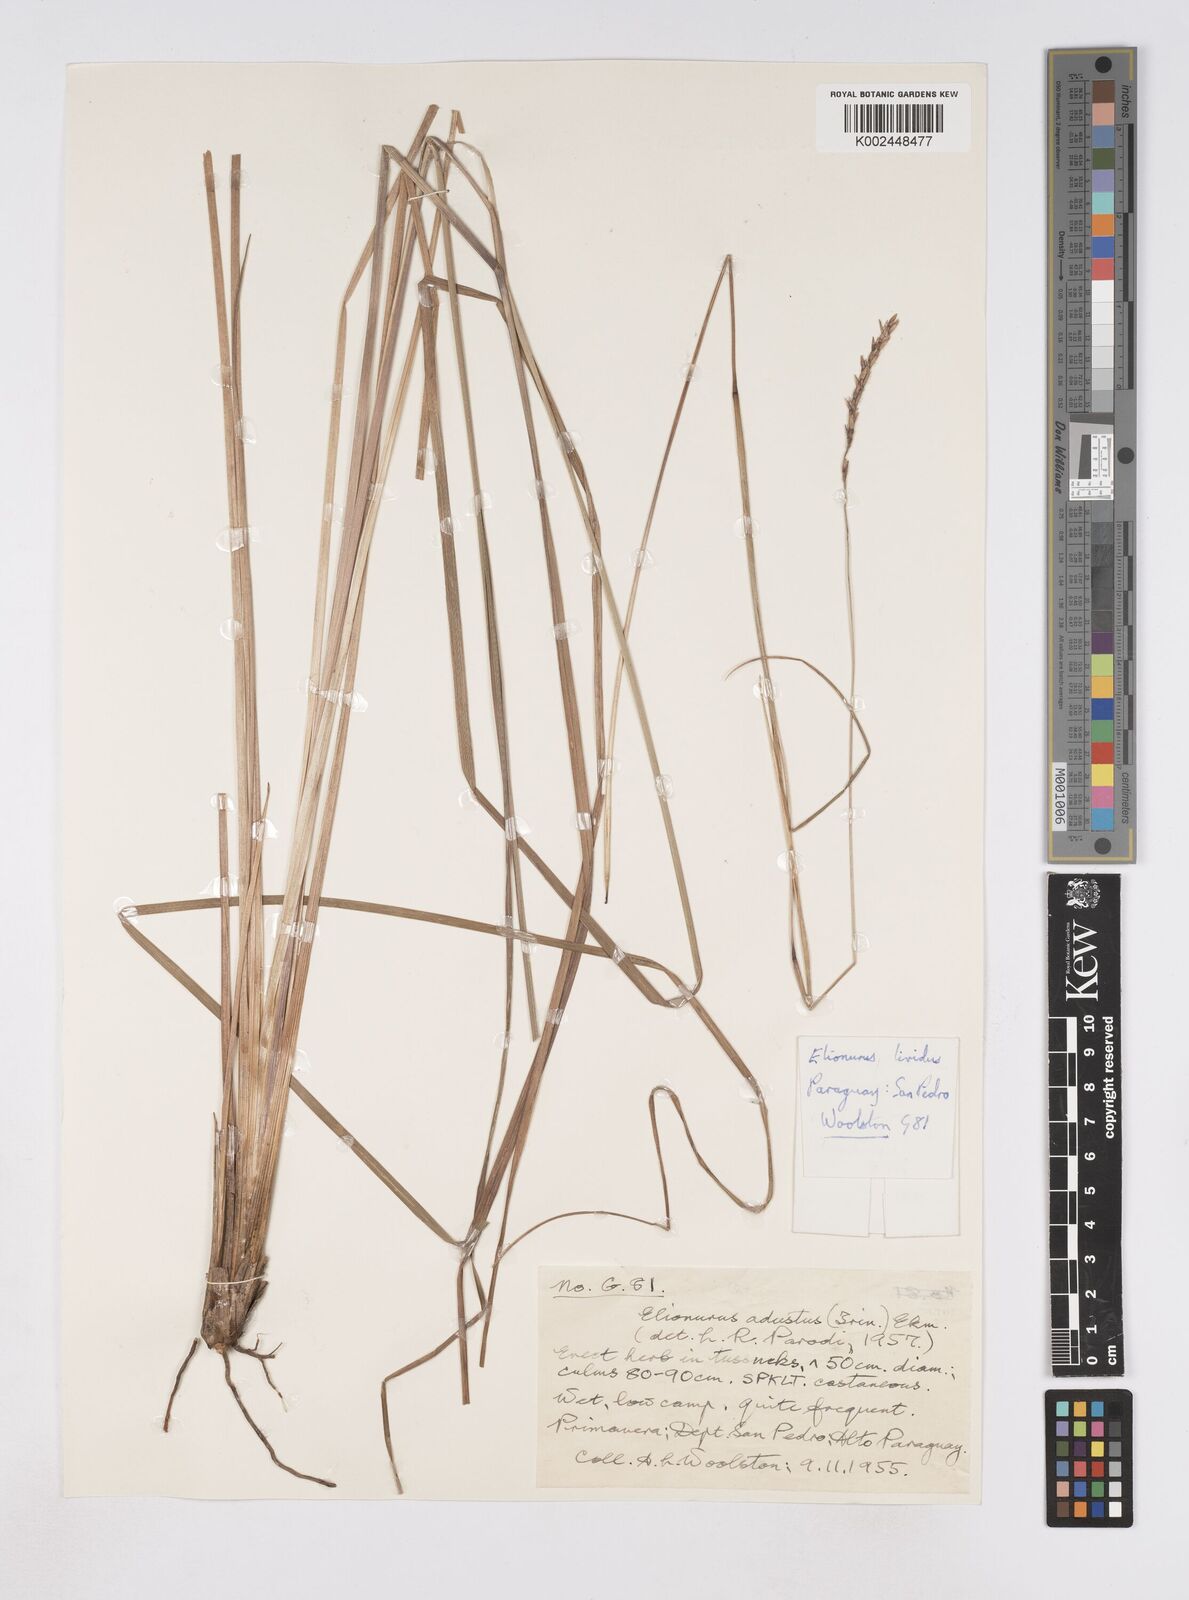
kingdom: Plantae
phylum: Tracheophyta
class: Liliopsida
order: Poales
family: Poaceae
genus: Elionurus
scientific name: Elionurus lividus
